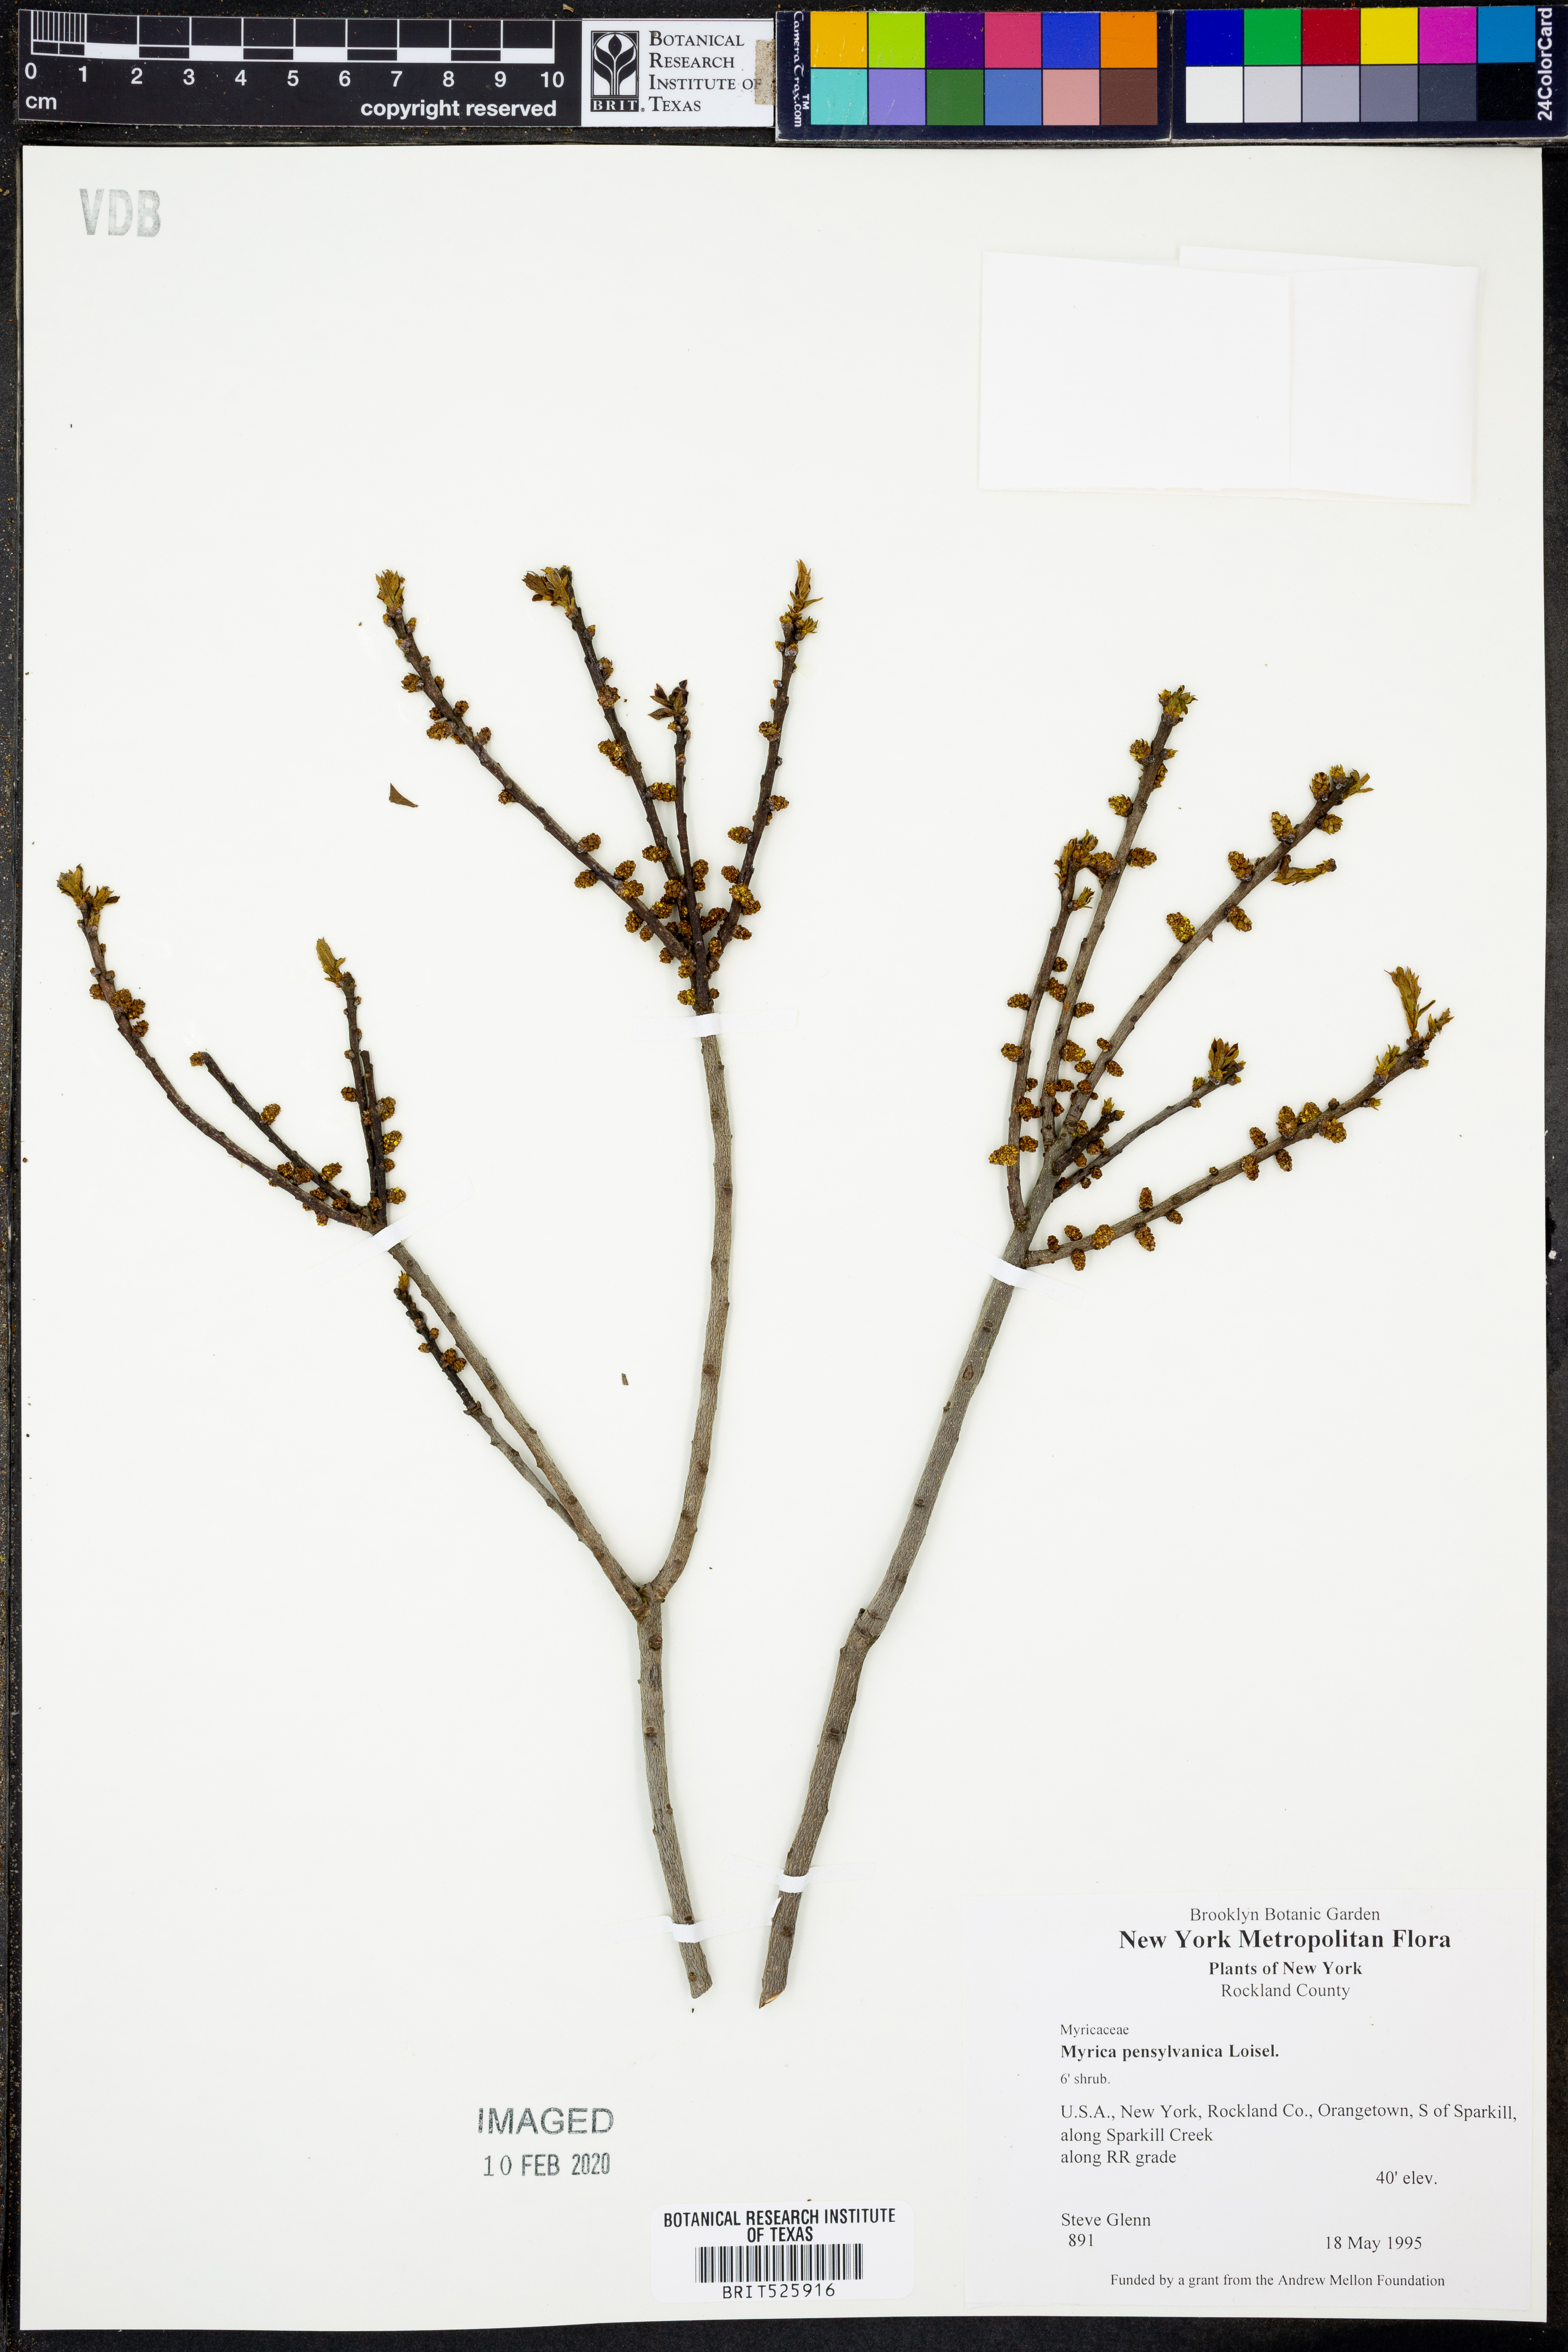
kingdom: Plantae
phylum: Tracheophyta
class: Magnoliopsida
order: Fagales
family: Myricaceae
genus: Morella
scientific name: Morella pensylvanica
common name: Northern bayberry
